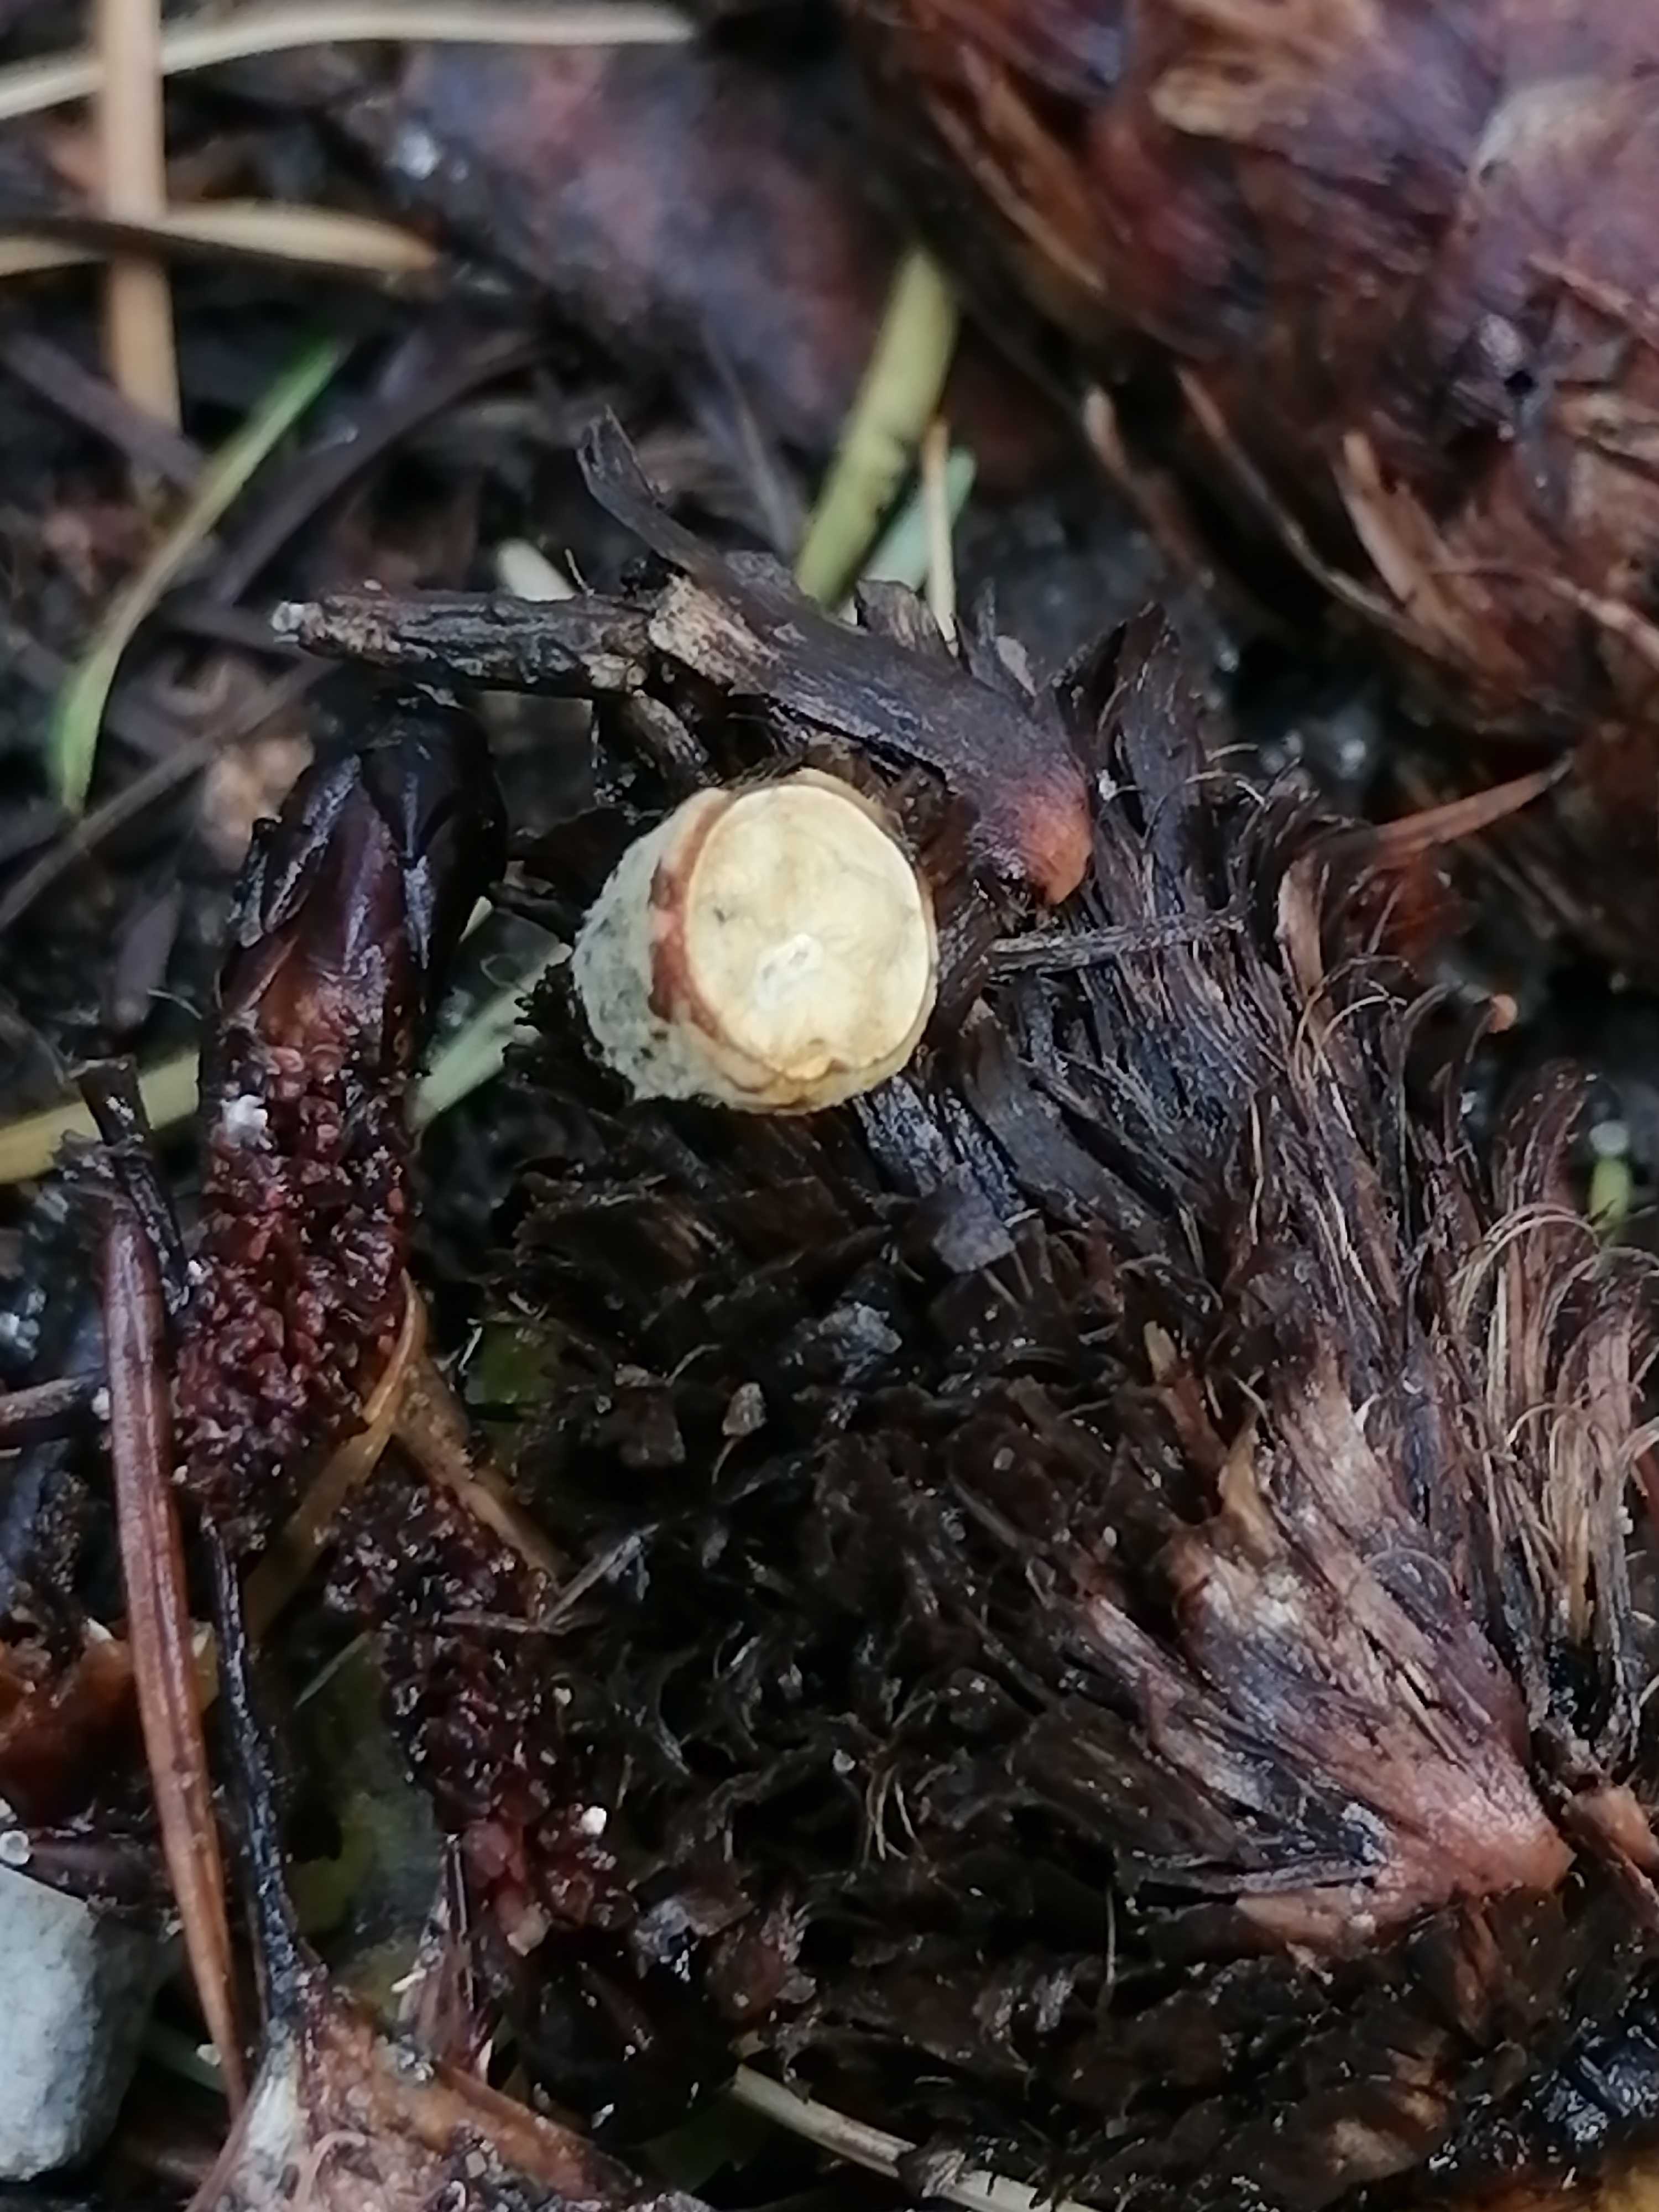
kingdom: Fungi
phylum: Basidiomycota
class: Agaricomycetes
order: Agaricales
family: Nidulariaceae
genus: Crucibulum
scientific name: Crucibulum crucibuliforme
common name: krukkesvamp
